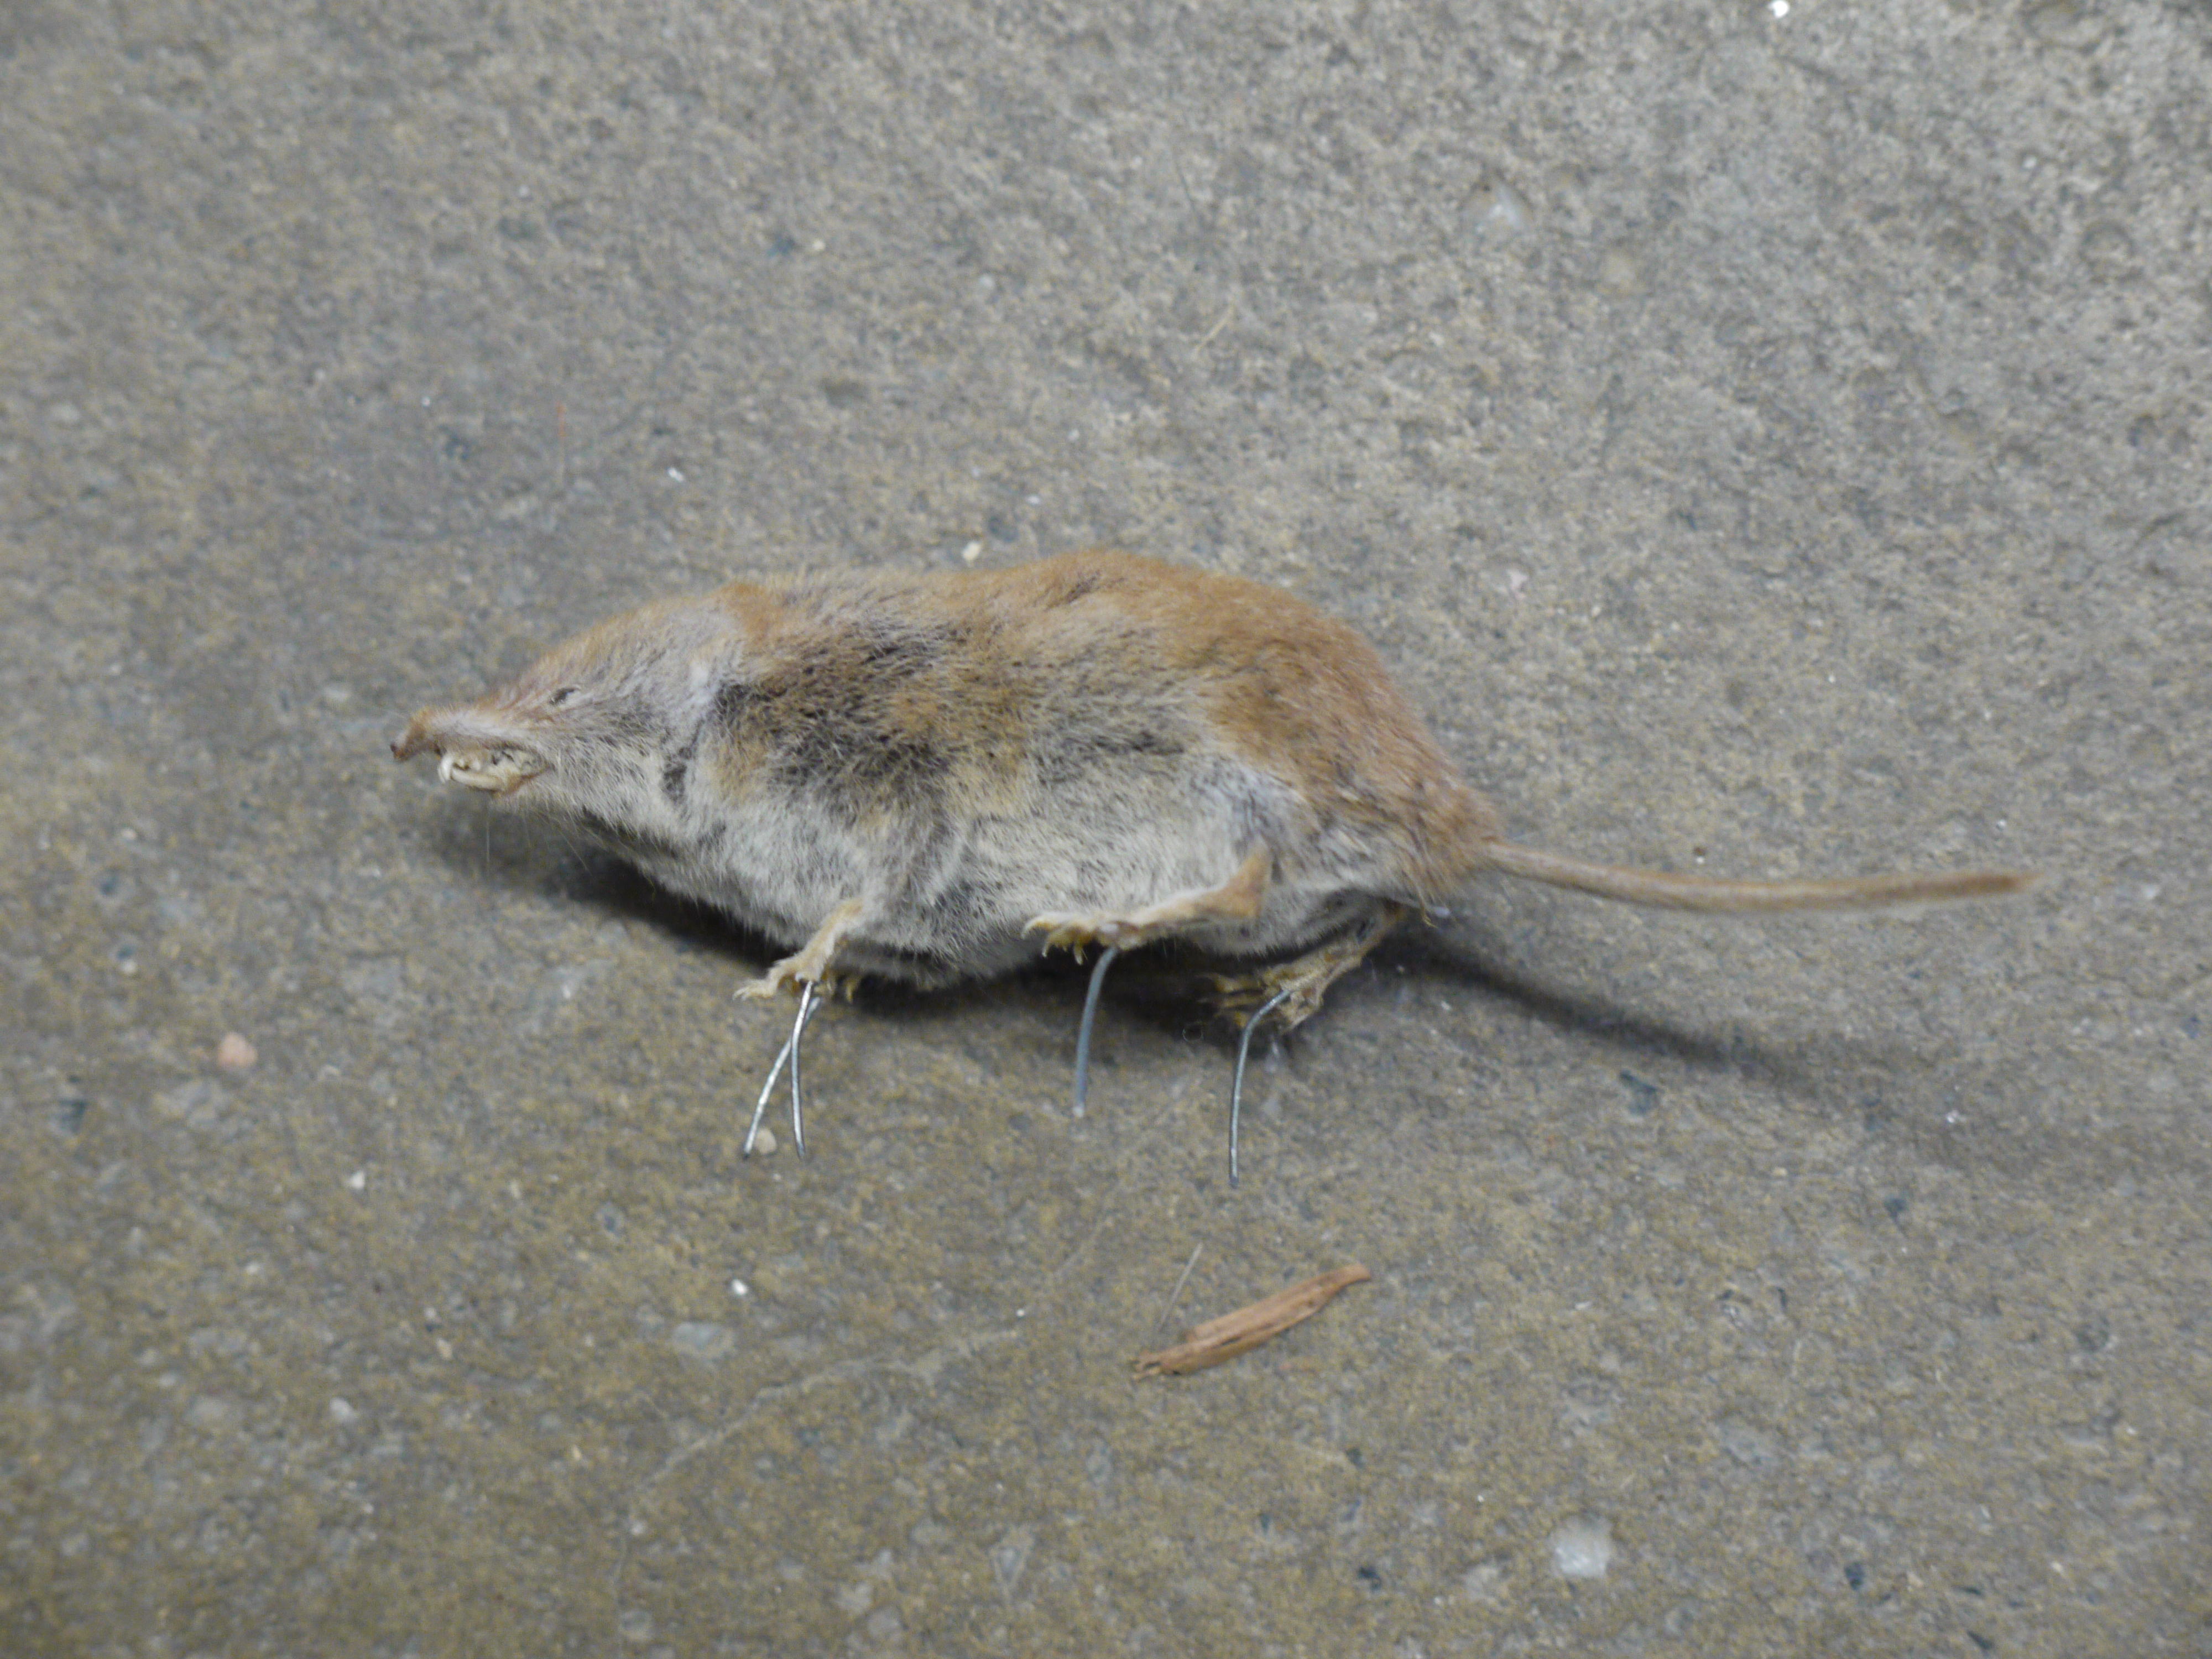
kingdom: Animalia
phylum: Chordata
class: Mammalia
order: Soricomorpha
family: Soricidae
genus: Crocidura
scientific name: Crocidura russula
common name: Greater white-toothed shrew
